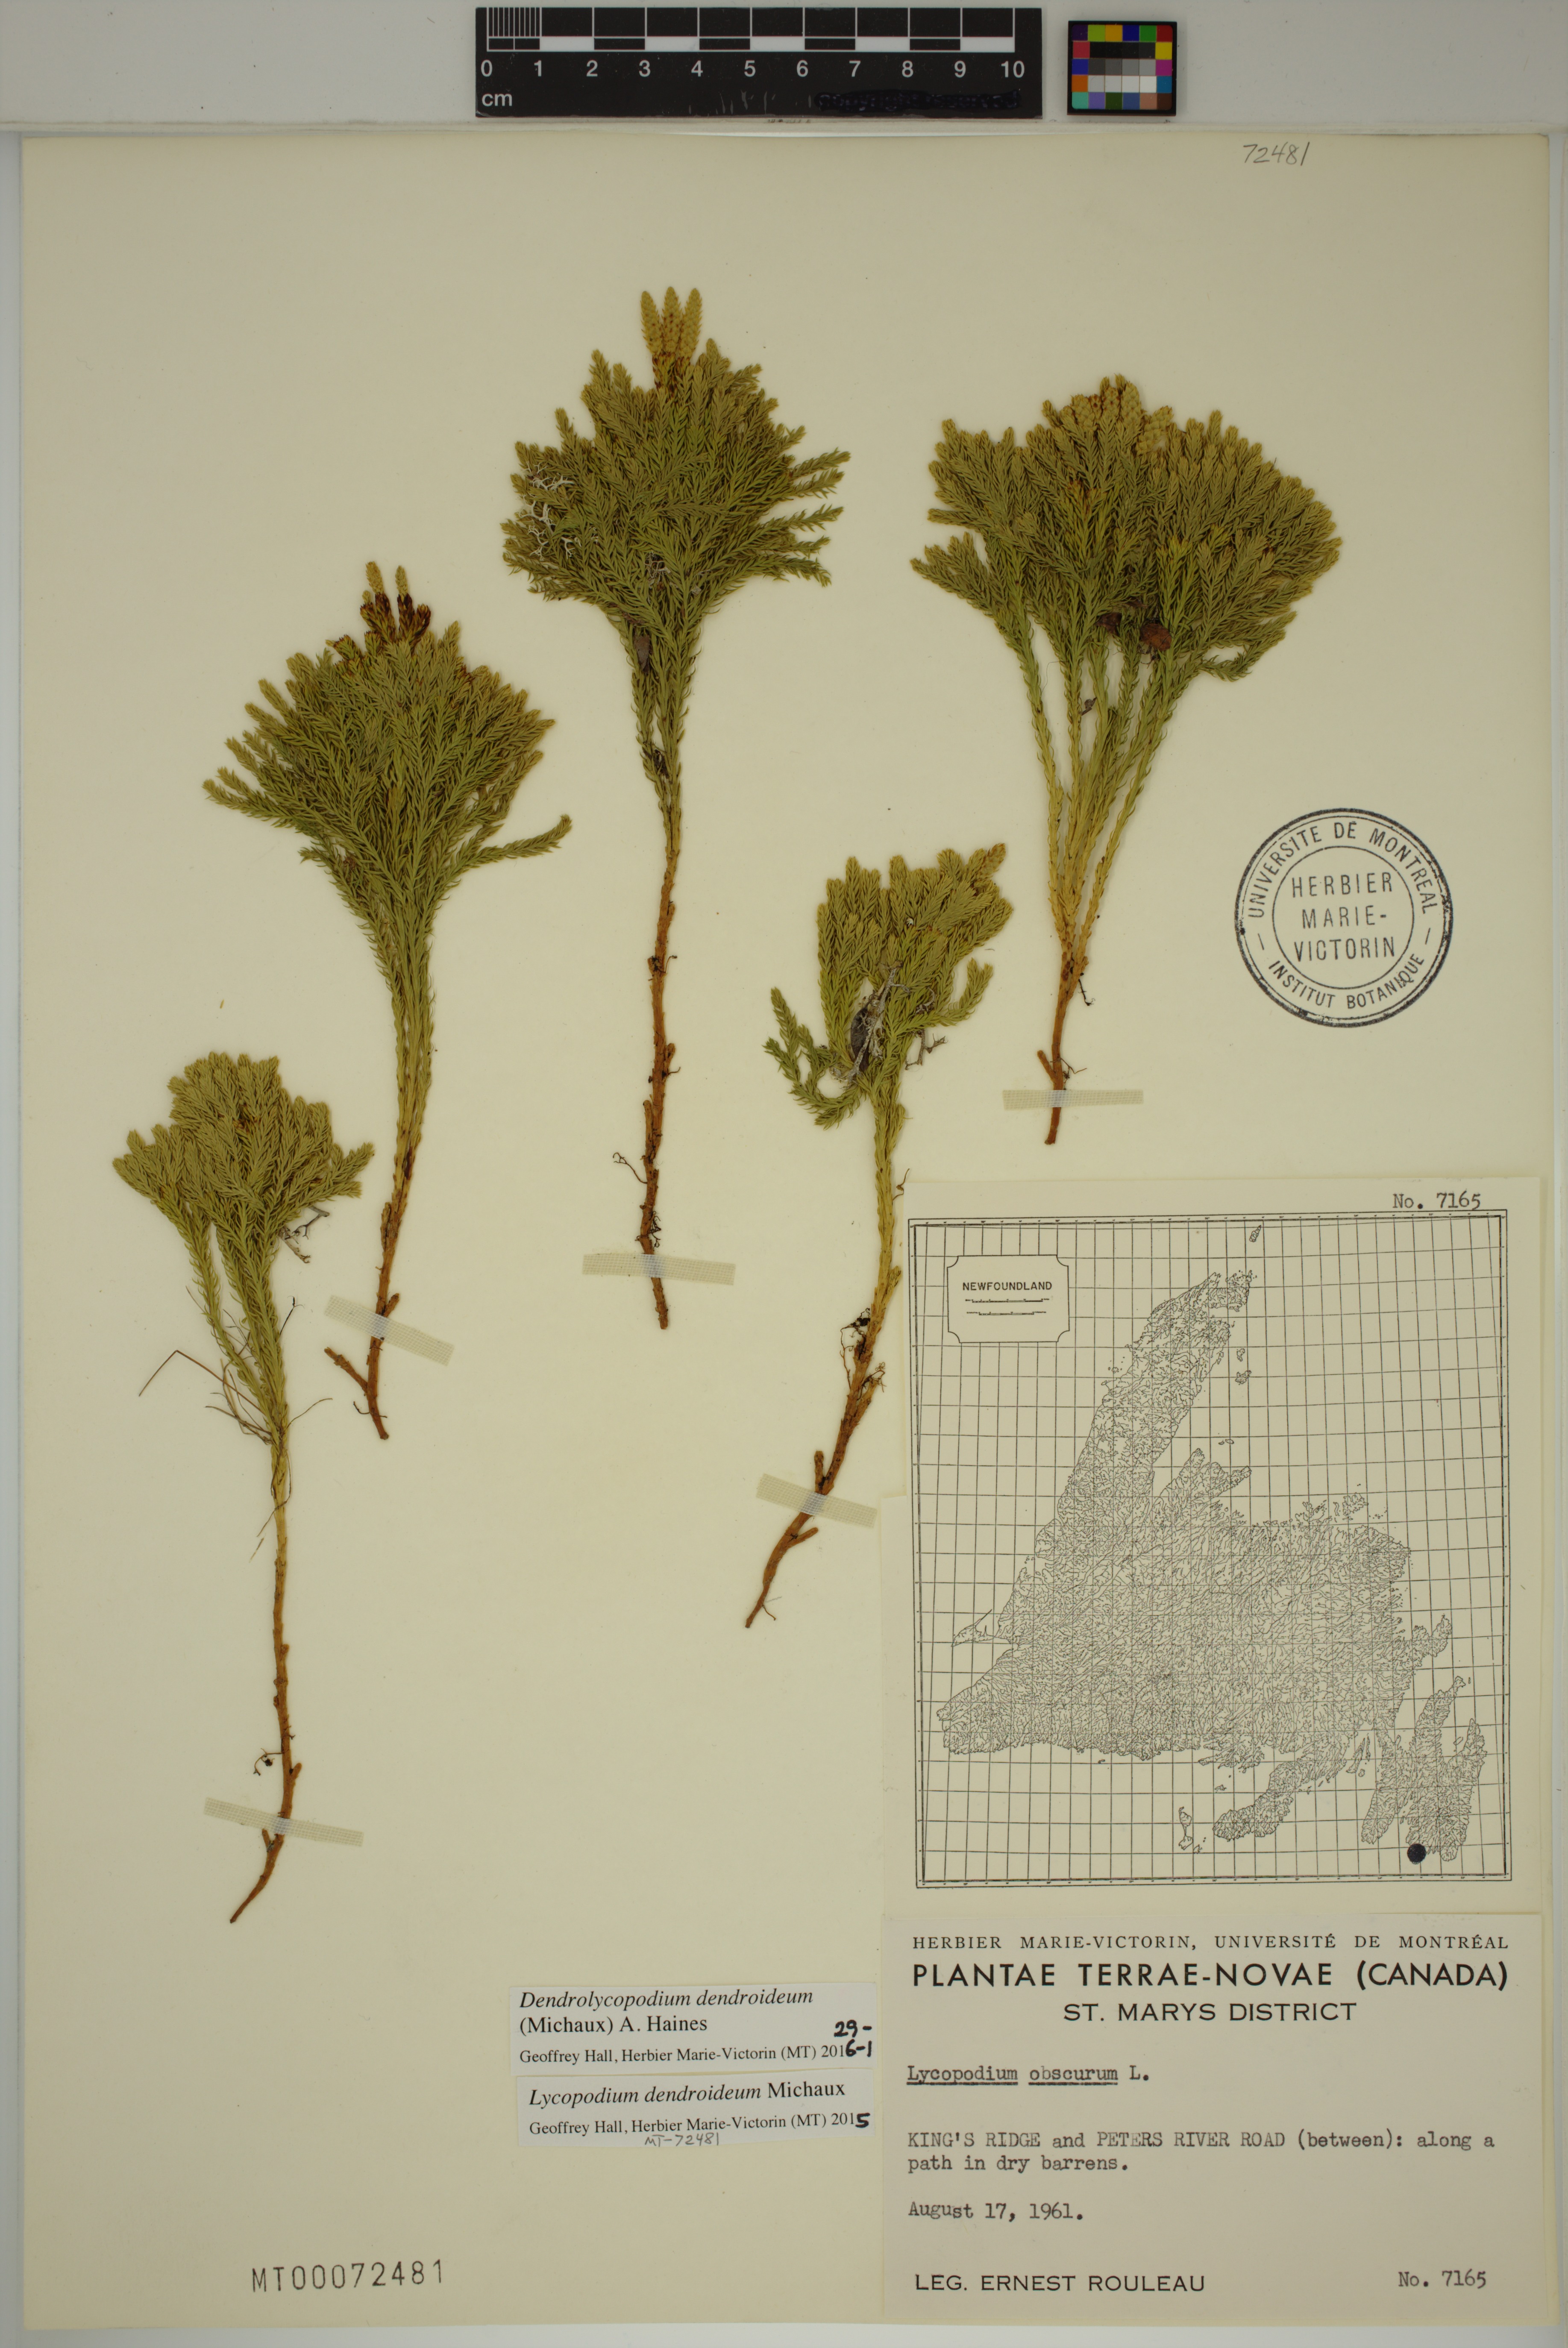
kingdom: Plantae
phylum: Tracheophyta
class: Lycopodiopsida
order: Lycopodiales
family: Lycopodiaceae
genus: Dendrolycopodium
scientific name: Dendrolycopodium dendroideum
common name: Northern tree-clubmoss
